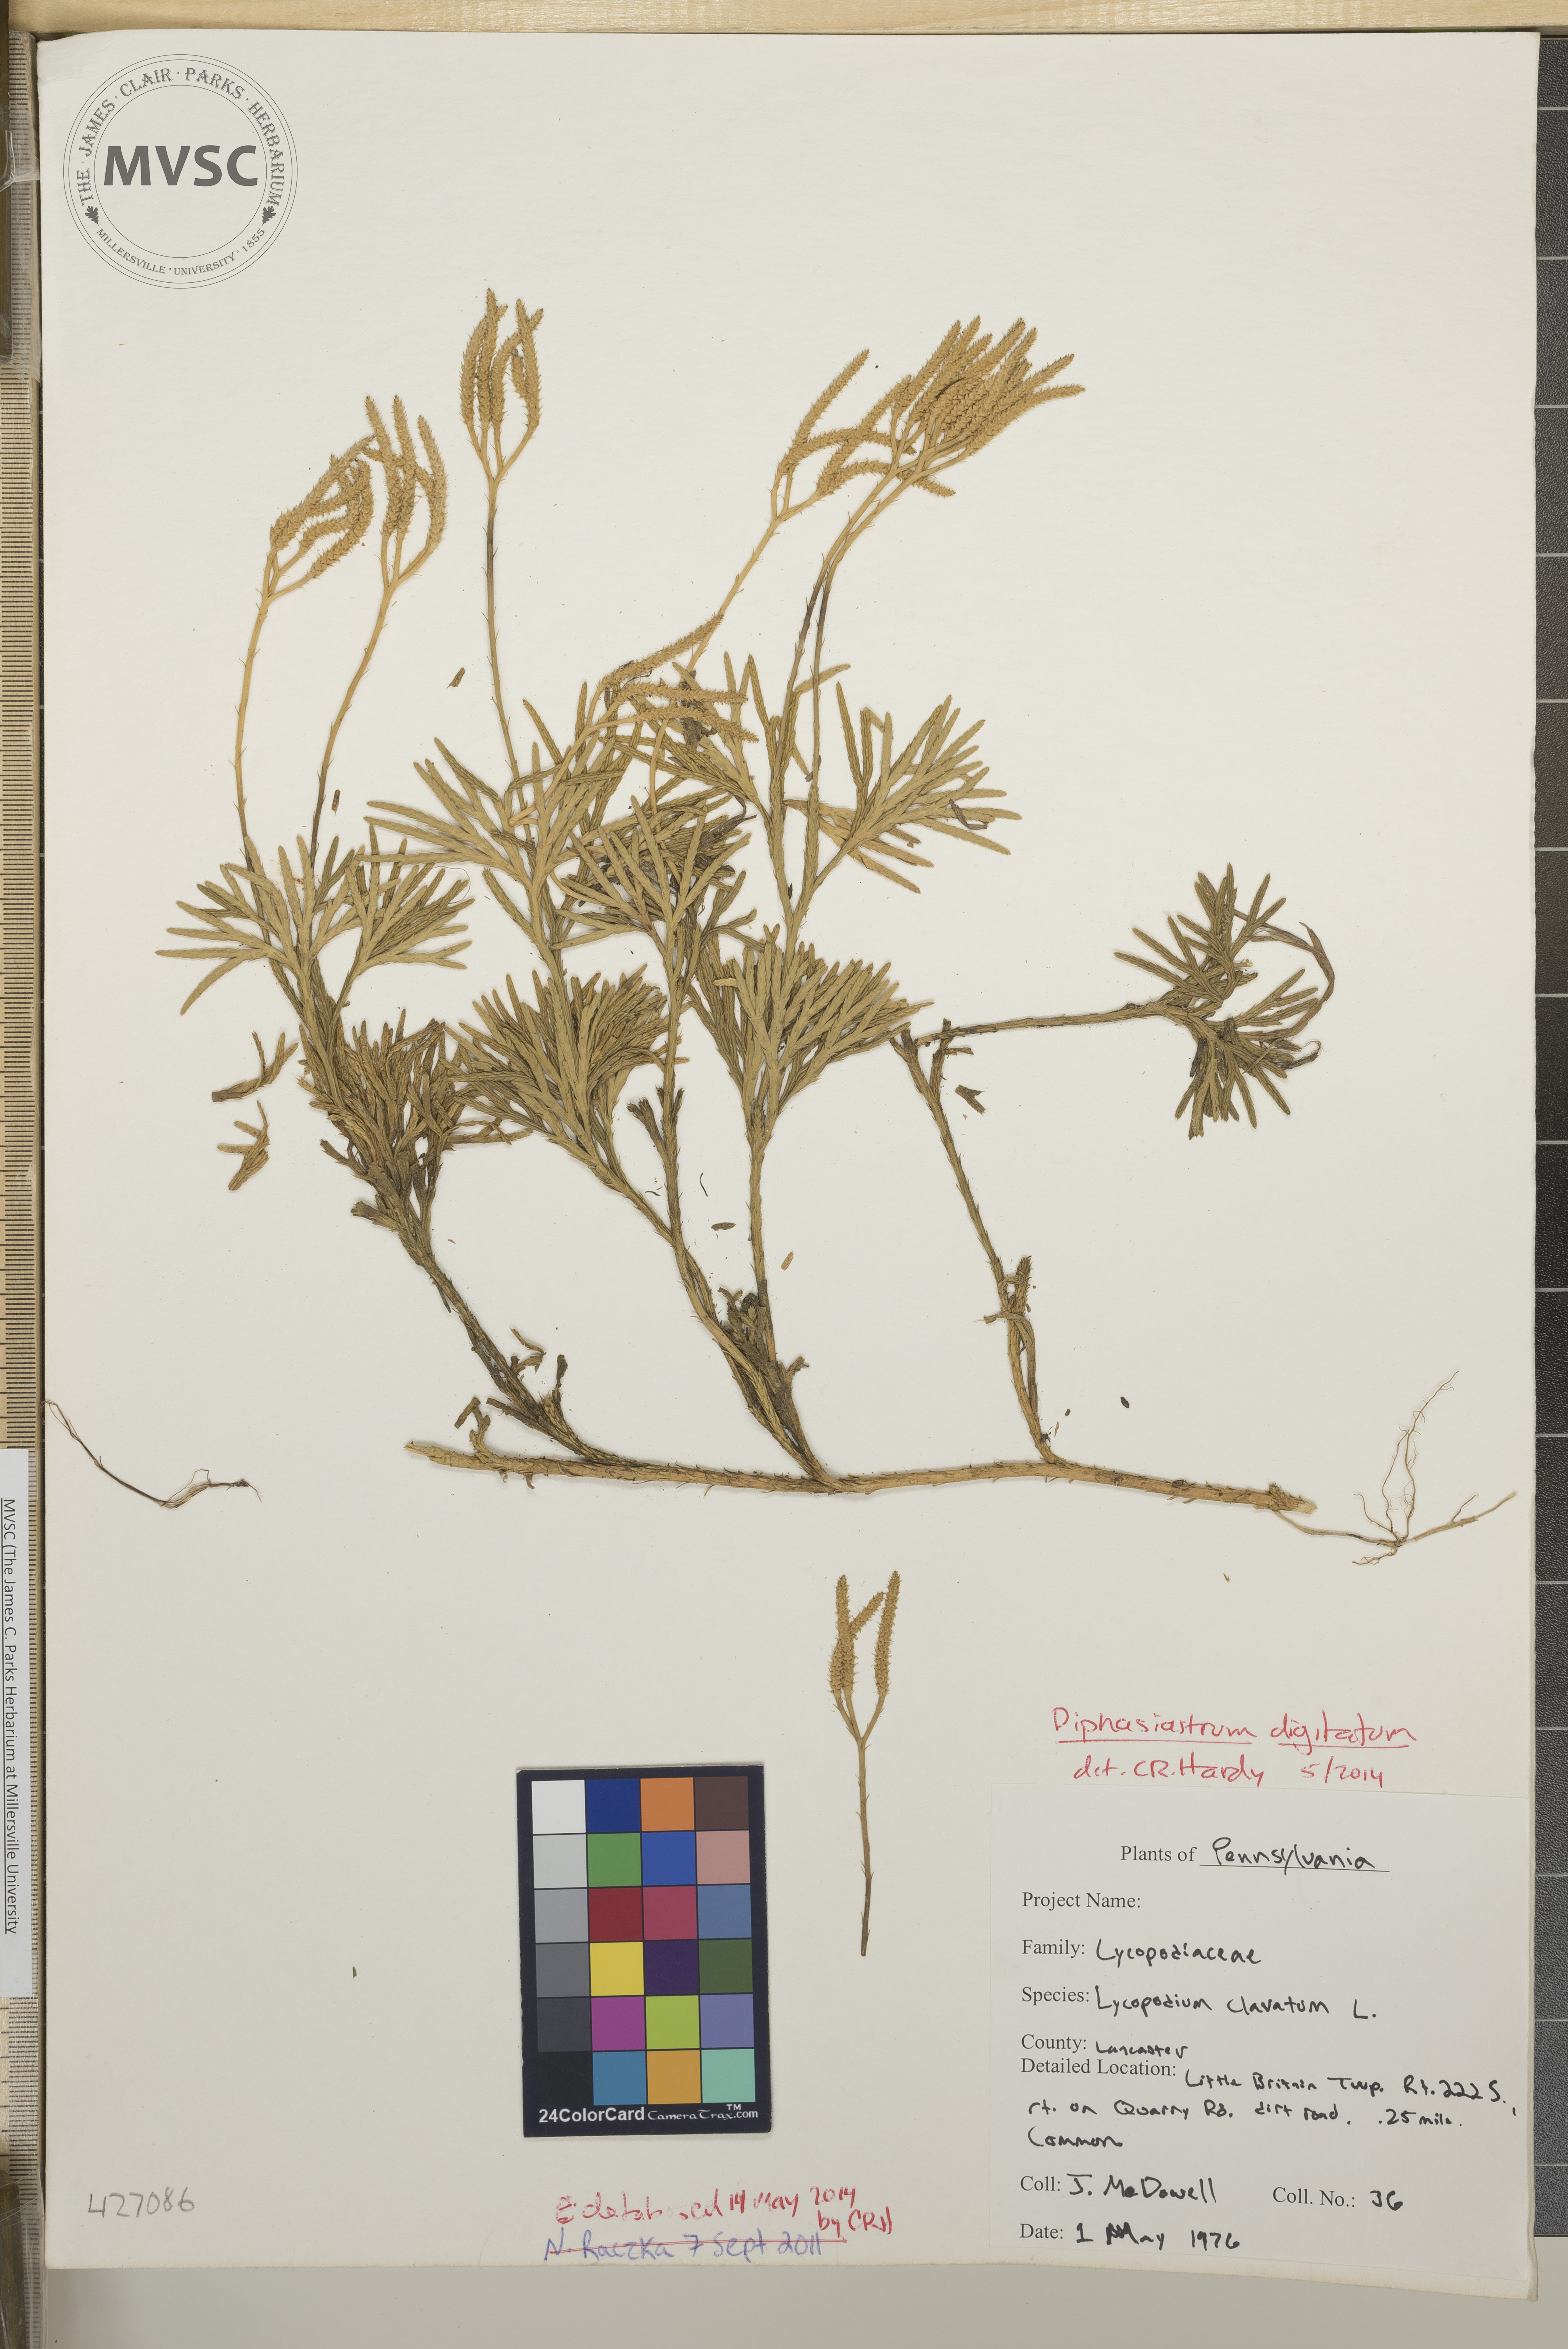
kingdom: Plantae
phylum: Tracheophyta
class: Lycopodiopsida
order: Lycopodiales
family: Lycopodiaceae
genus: Diphasiastrum
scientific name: Diphasiastrum digitatum
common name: Southern running-pine
